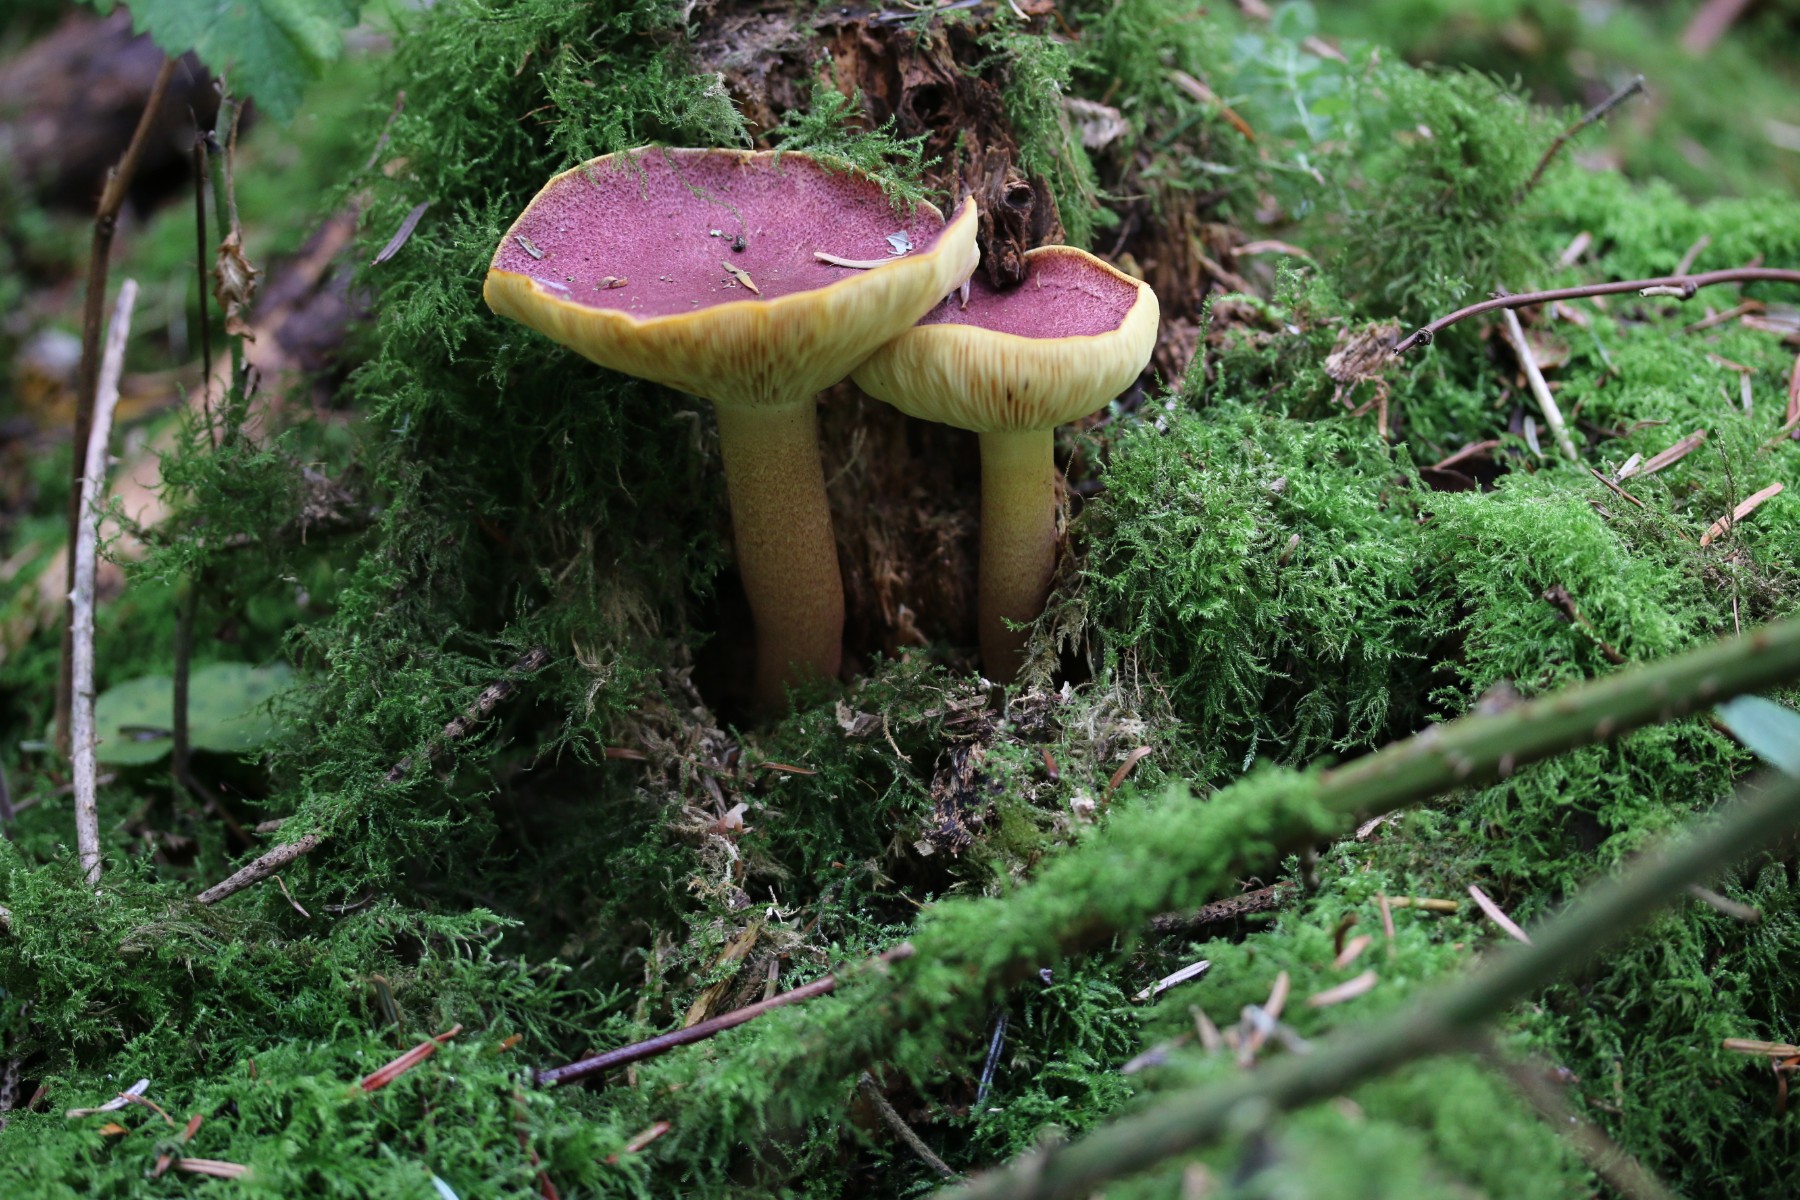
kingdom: Fungi
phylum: Basidiomycota
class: Agaricomycetes
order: Agaricales
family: Tricholomataceae
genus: Tricholomopsis
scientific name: Tricholomopsis rutilans
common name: purpur-væbnerhat
